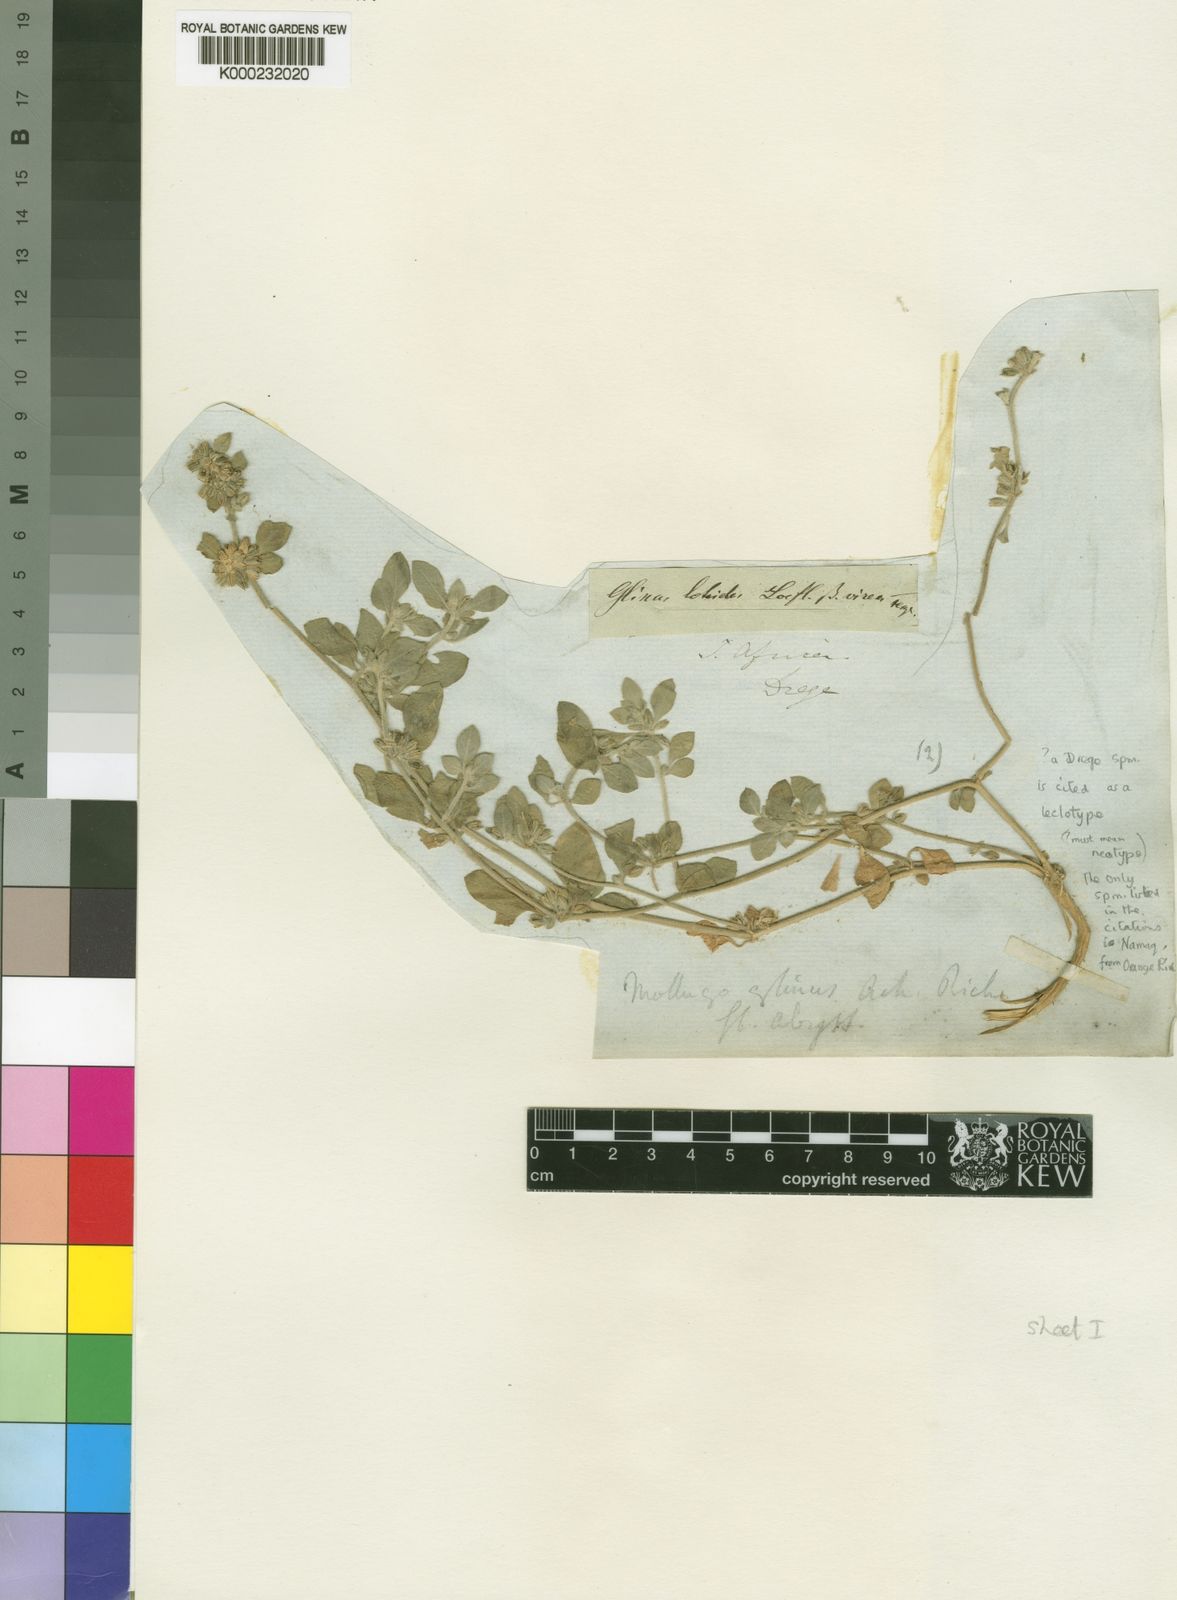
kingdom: Plantae
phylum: Tracheophyta
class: Magnoliopsida
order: Caryophyllales
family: Molluginaceae
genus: Glinus
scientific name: Glinus lotoides
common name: Lotus sweetjuice
